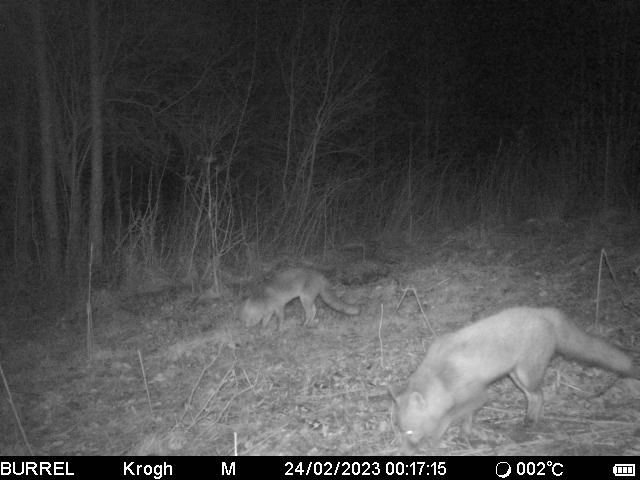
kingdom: Animalia
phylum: Chordata
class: Mammalia
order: Carnivora
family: Canidae
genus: Vulpes
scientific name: Vulpes vulpes
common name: Ræv
